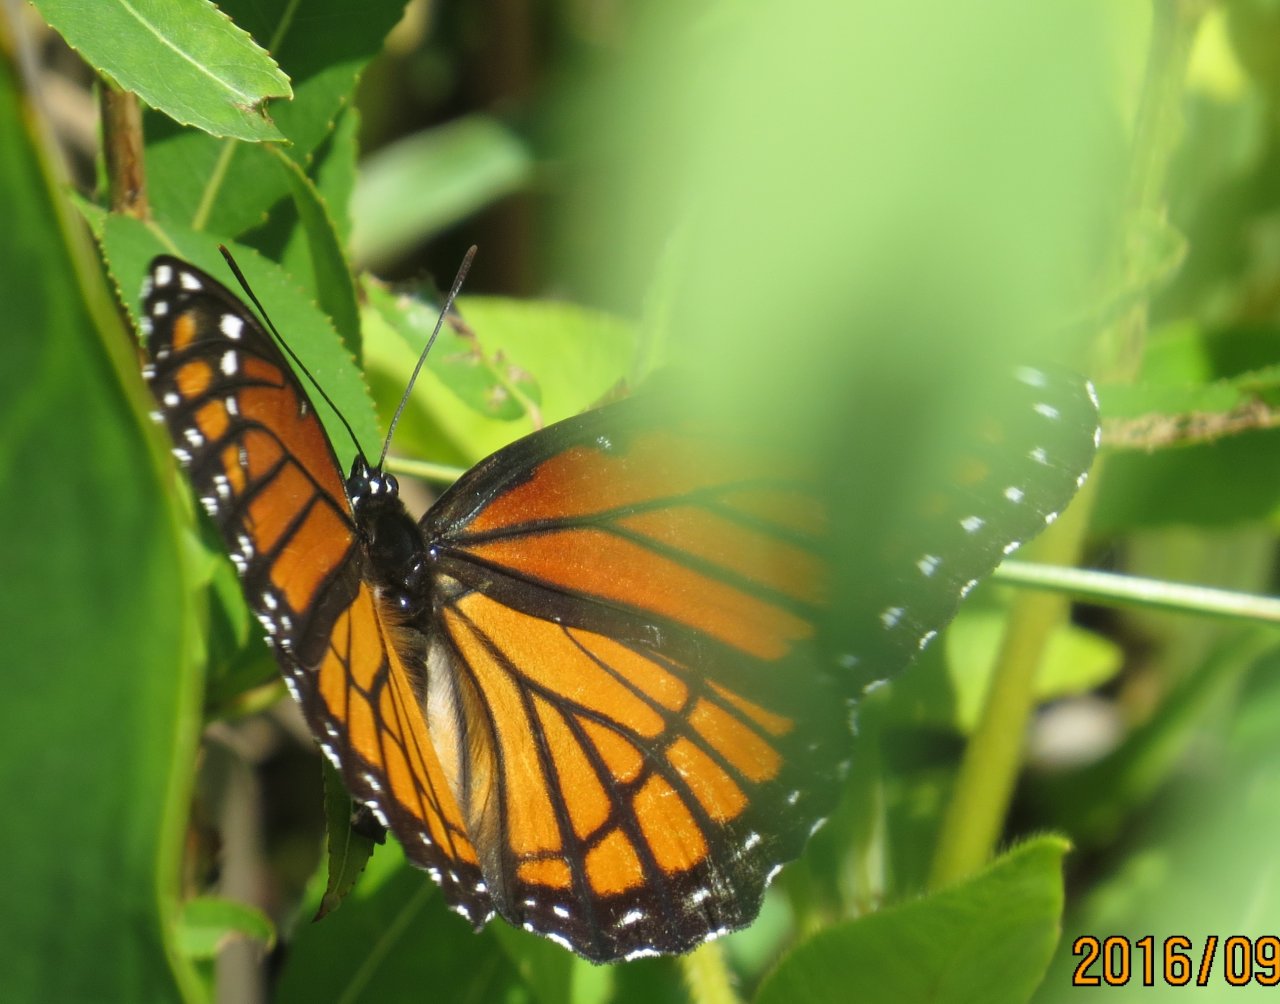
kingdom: Animalia
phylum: Arthropoda
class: Insecta
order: Lepidoptera
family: Nymphalidae
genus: Limenitis
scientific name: Limenitis archippus
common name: Viceroy
